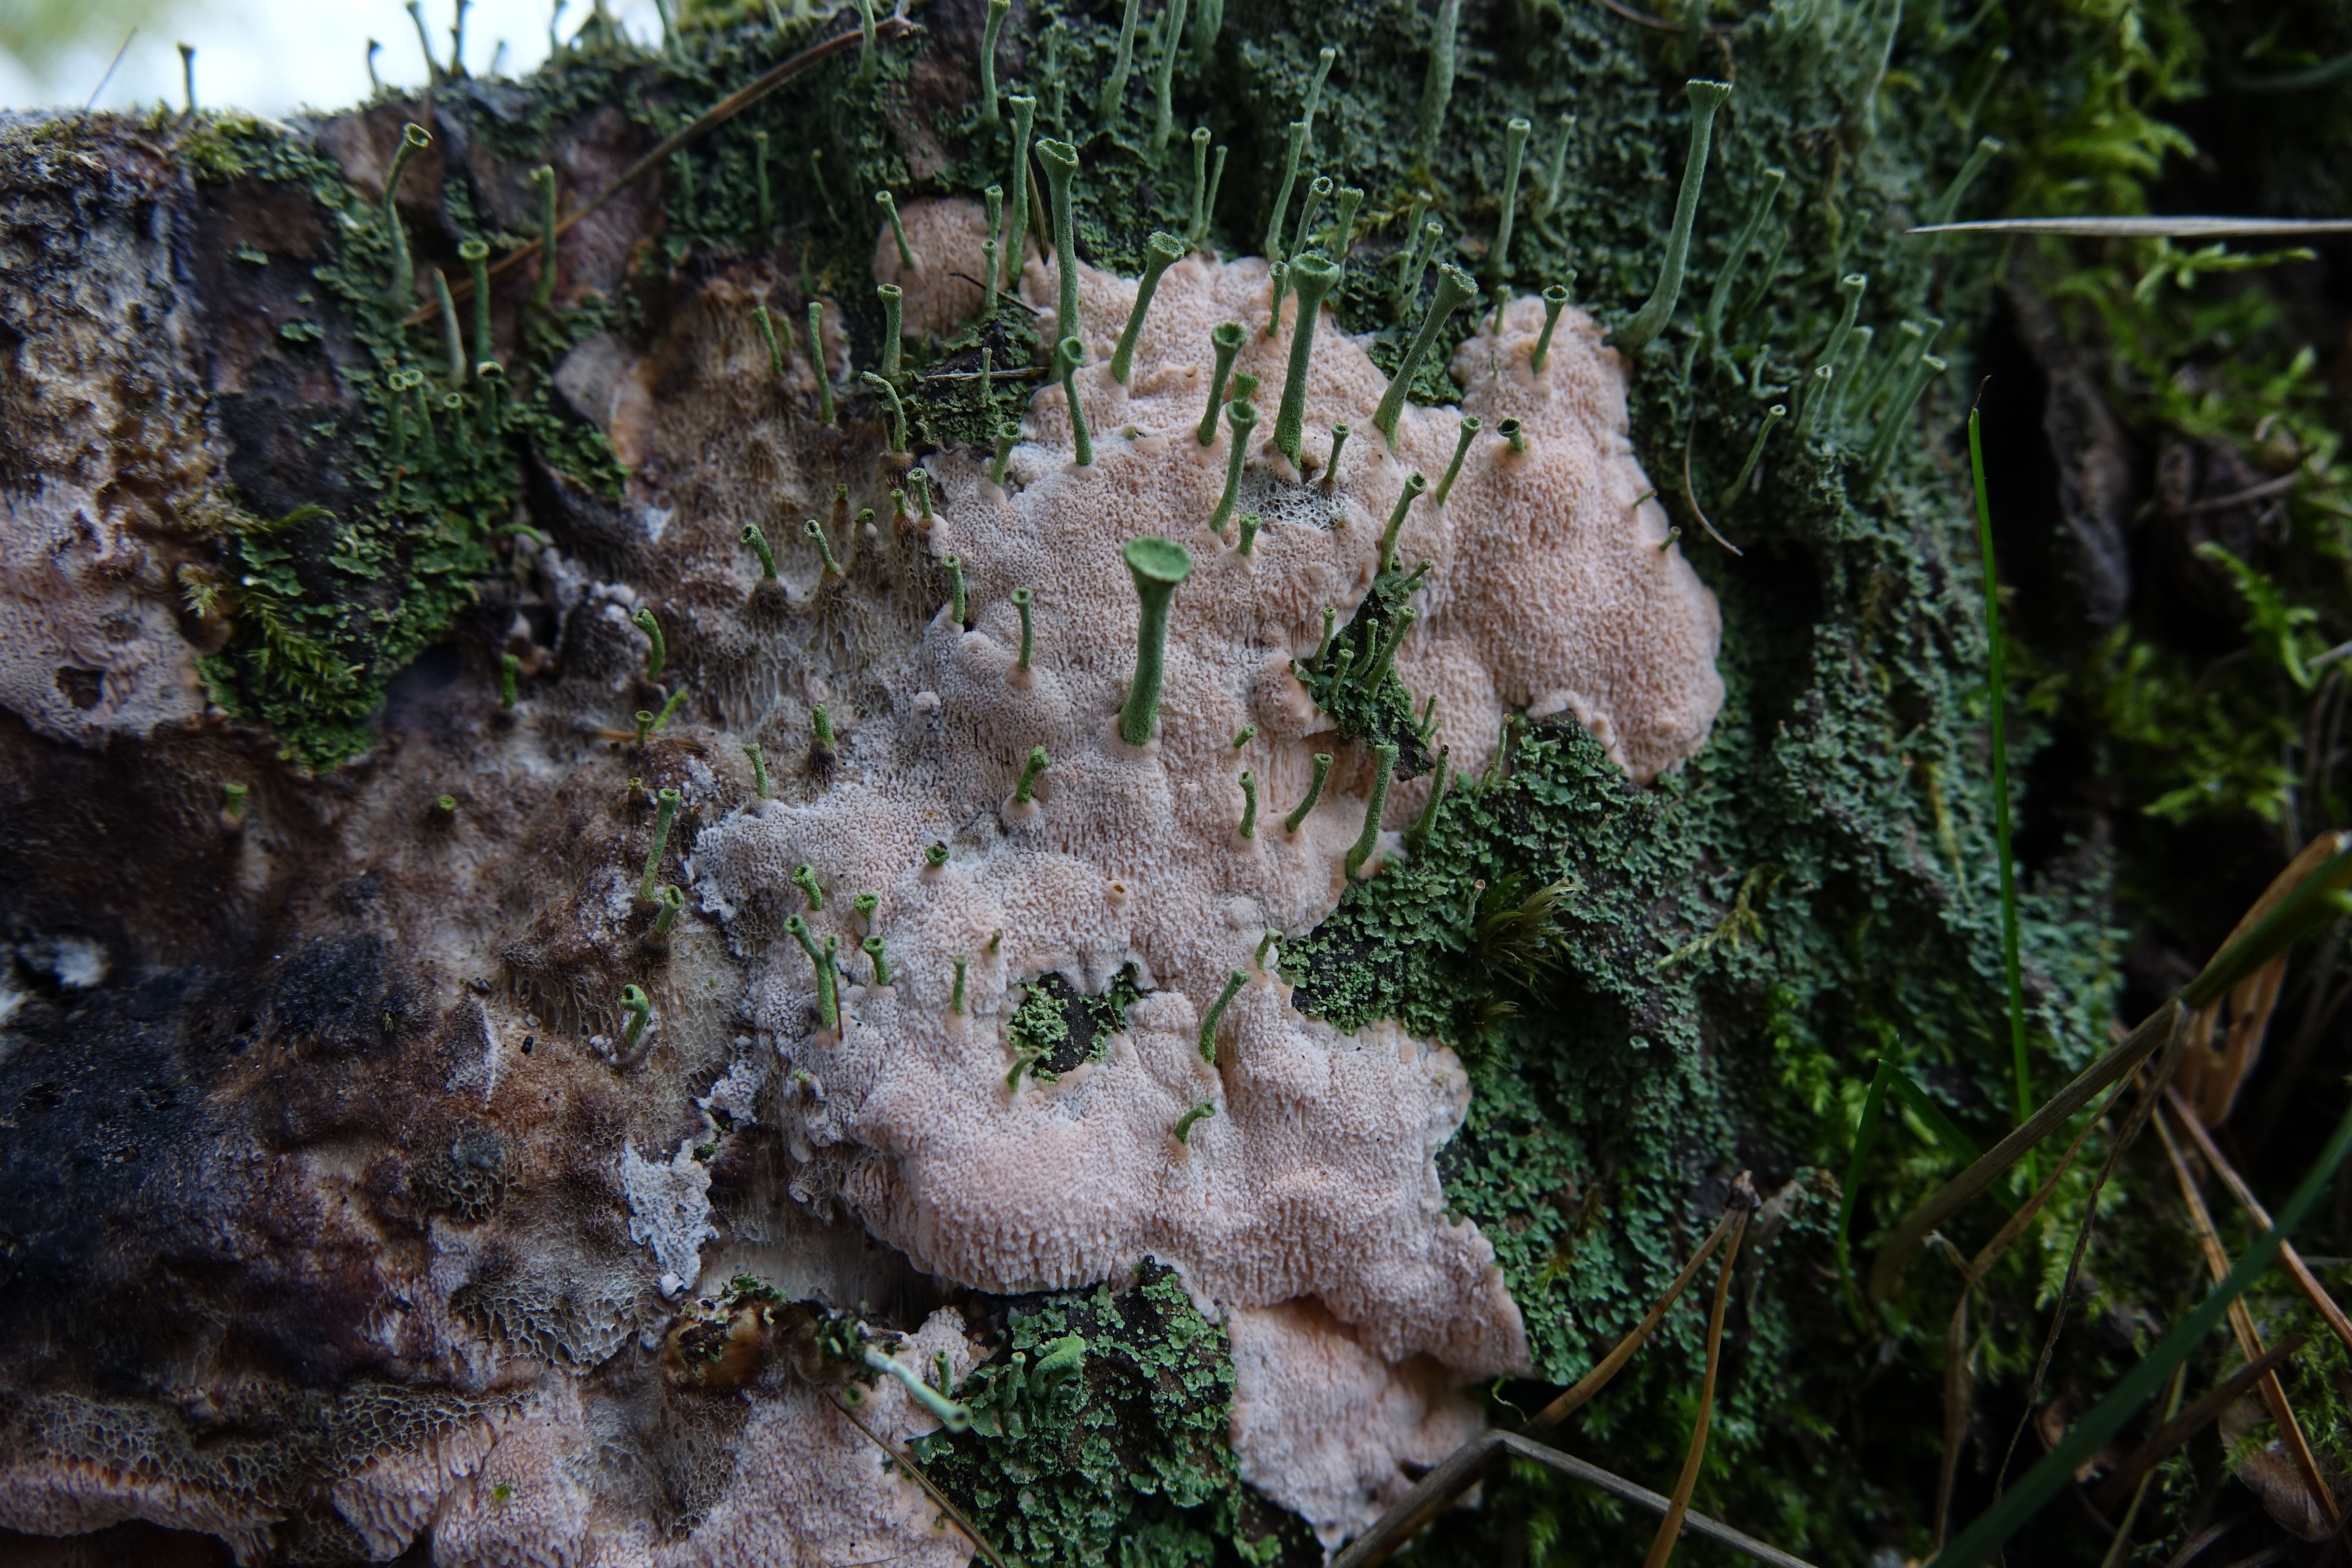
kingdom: Fungi
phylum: Basidiomycota
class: Agaricomycetes
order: Polyporales
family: Polyporaceae
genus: Rhodonia
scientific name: Rhodonia placenta
